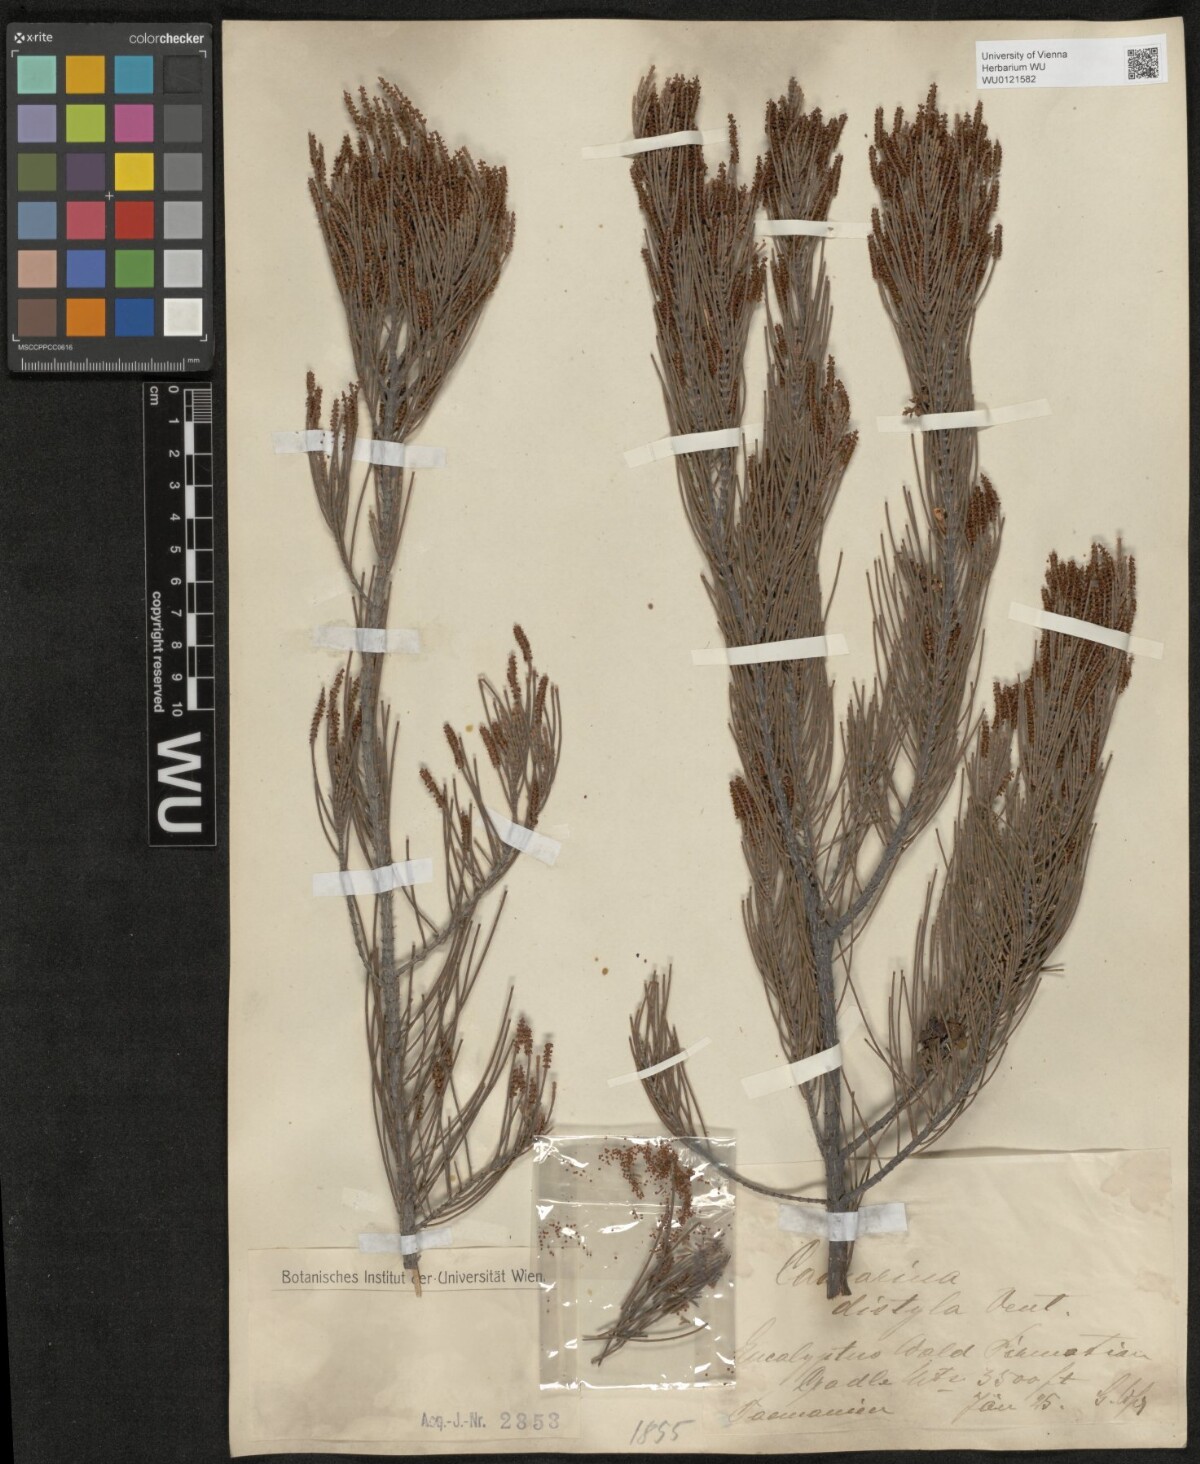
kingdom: Plantae
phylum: Tracheophyta
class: Magnoliopsida
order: Fagales
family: Casuarinaceae
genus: Allocasuarina
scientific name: Allocasuarina distyla
